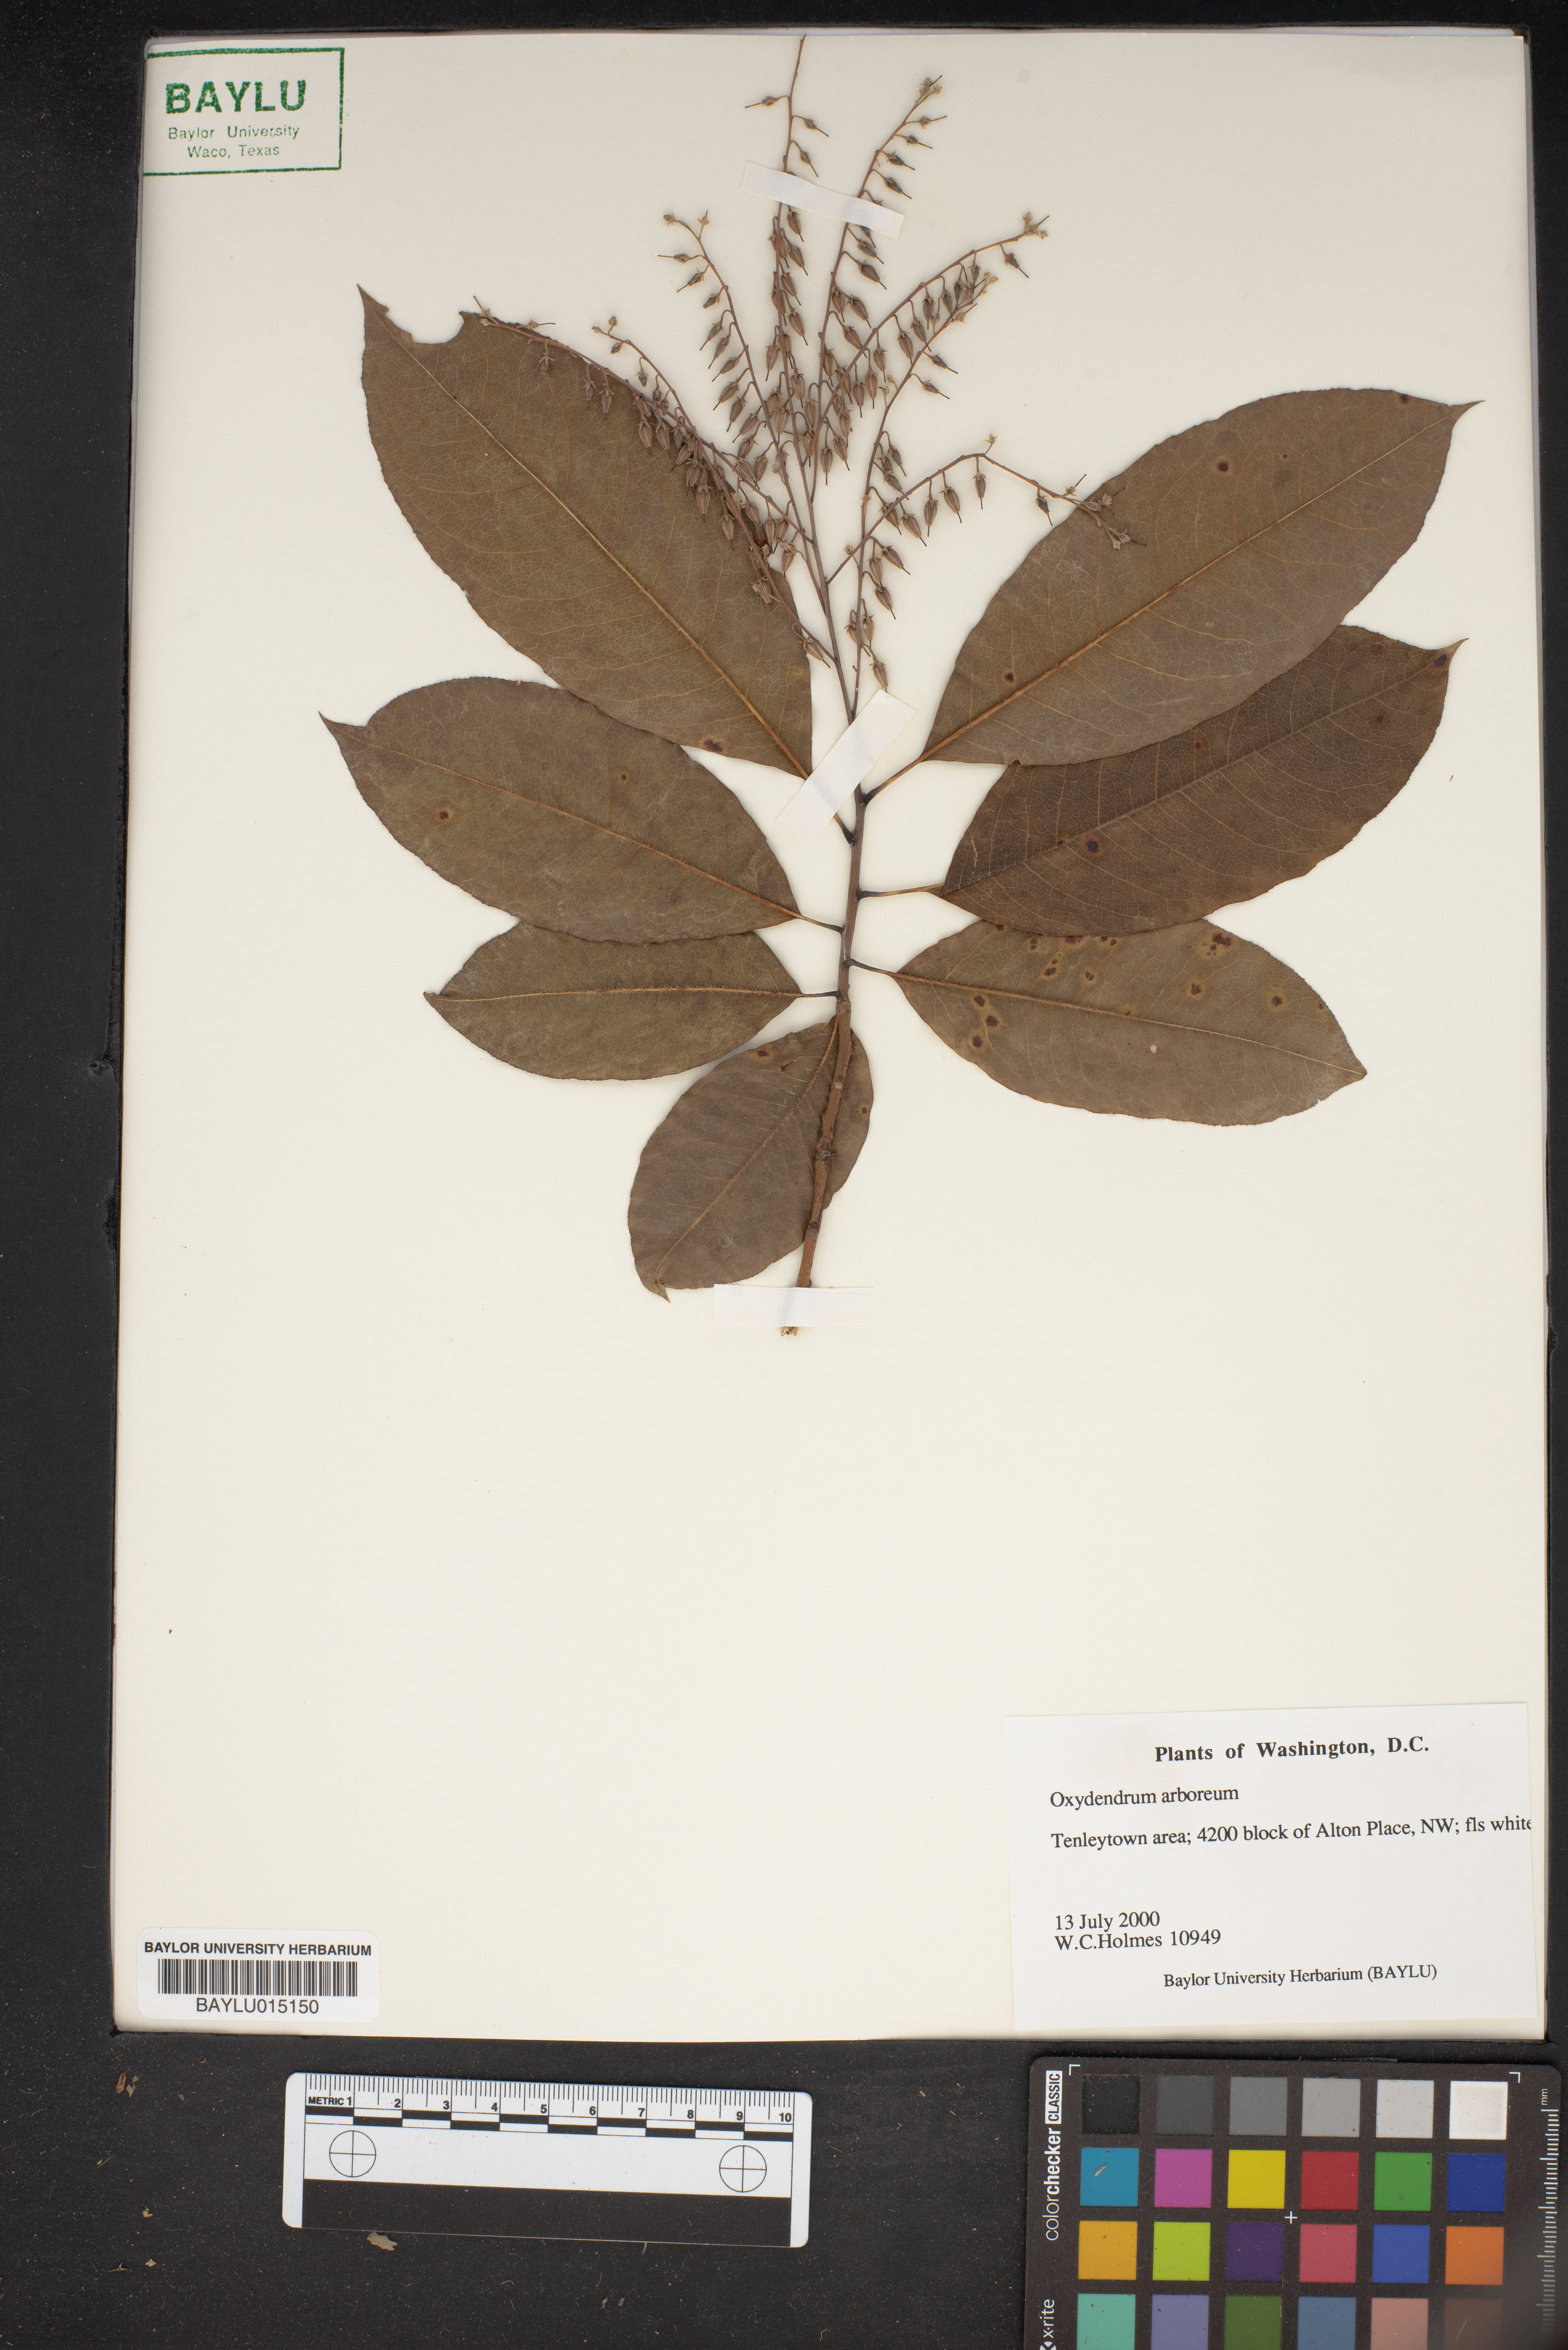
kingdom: Plantae
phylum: Tracheophyta
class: Magnoliopsida
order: Ericales
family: Ericaceae
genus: Oxydendrum
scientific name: Oxydendrum arboreum
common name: Sourwood
